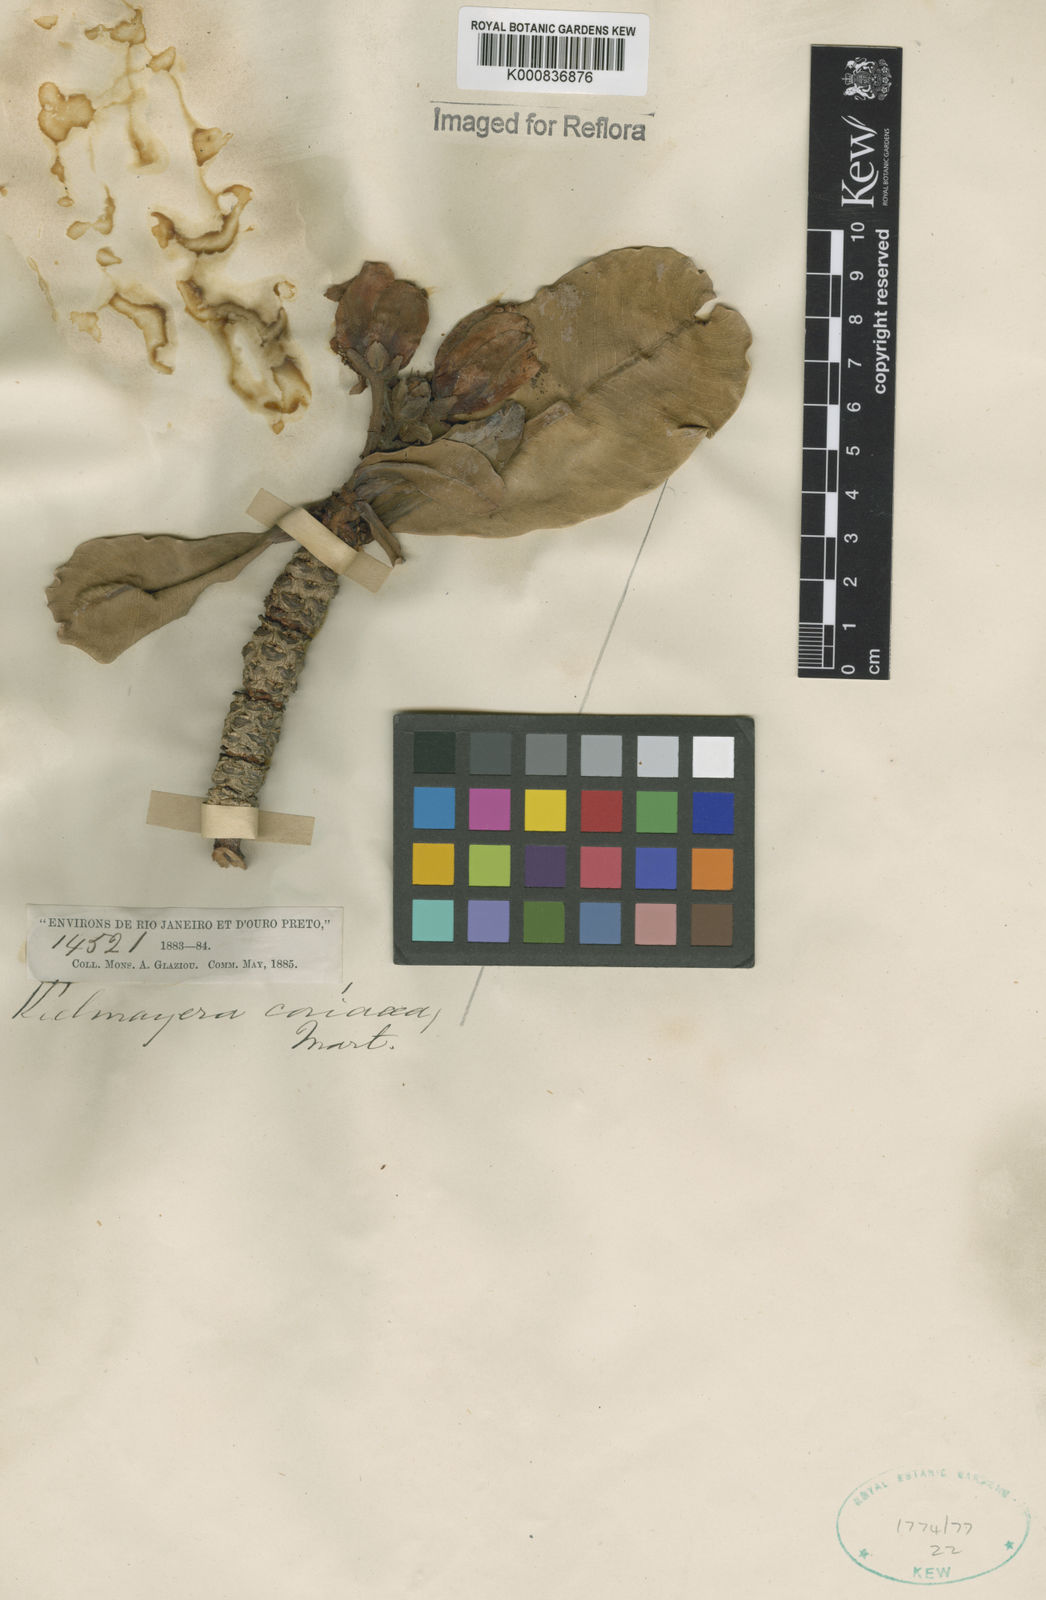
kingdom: Plantae
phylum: Tracheophyta
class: Magnoliopsida
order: Malpighiales
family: Calophyllaceae
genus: Kielmeyera
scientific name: Kielmeyera coriacea
